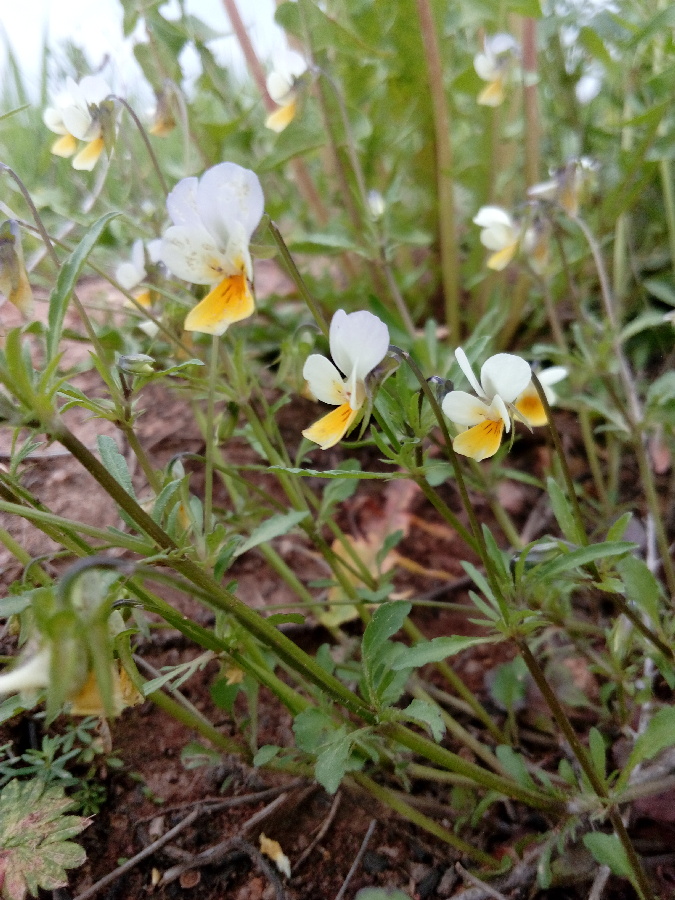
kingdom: Plantae
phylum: Tracheophyta
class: Magnoliopsida
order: Malpighiales
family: Violaceae
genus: Viola
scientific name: Viola
